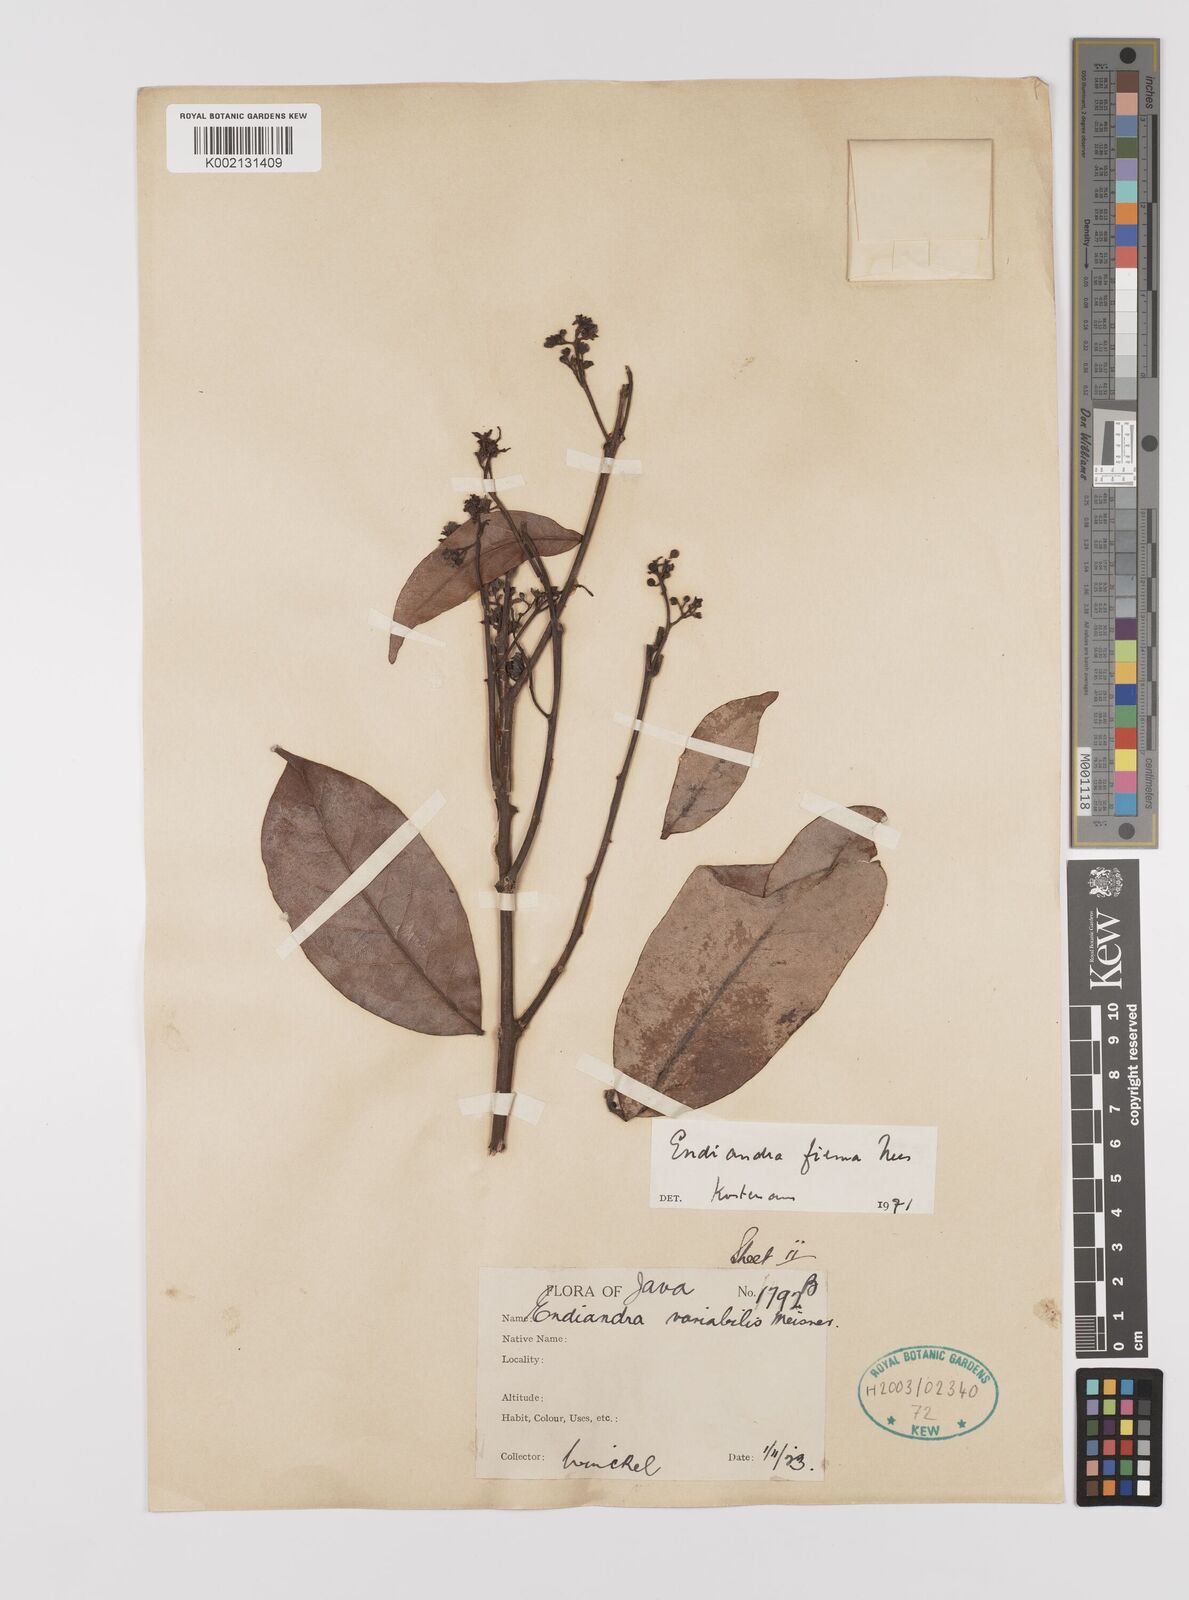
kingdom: Plantae
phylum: Tracheophyta
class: Magnoliopsida
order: Laurales
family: Lauraceae
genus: Endiandra
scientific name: Endiandra firma
